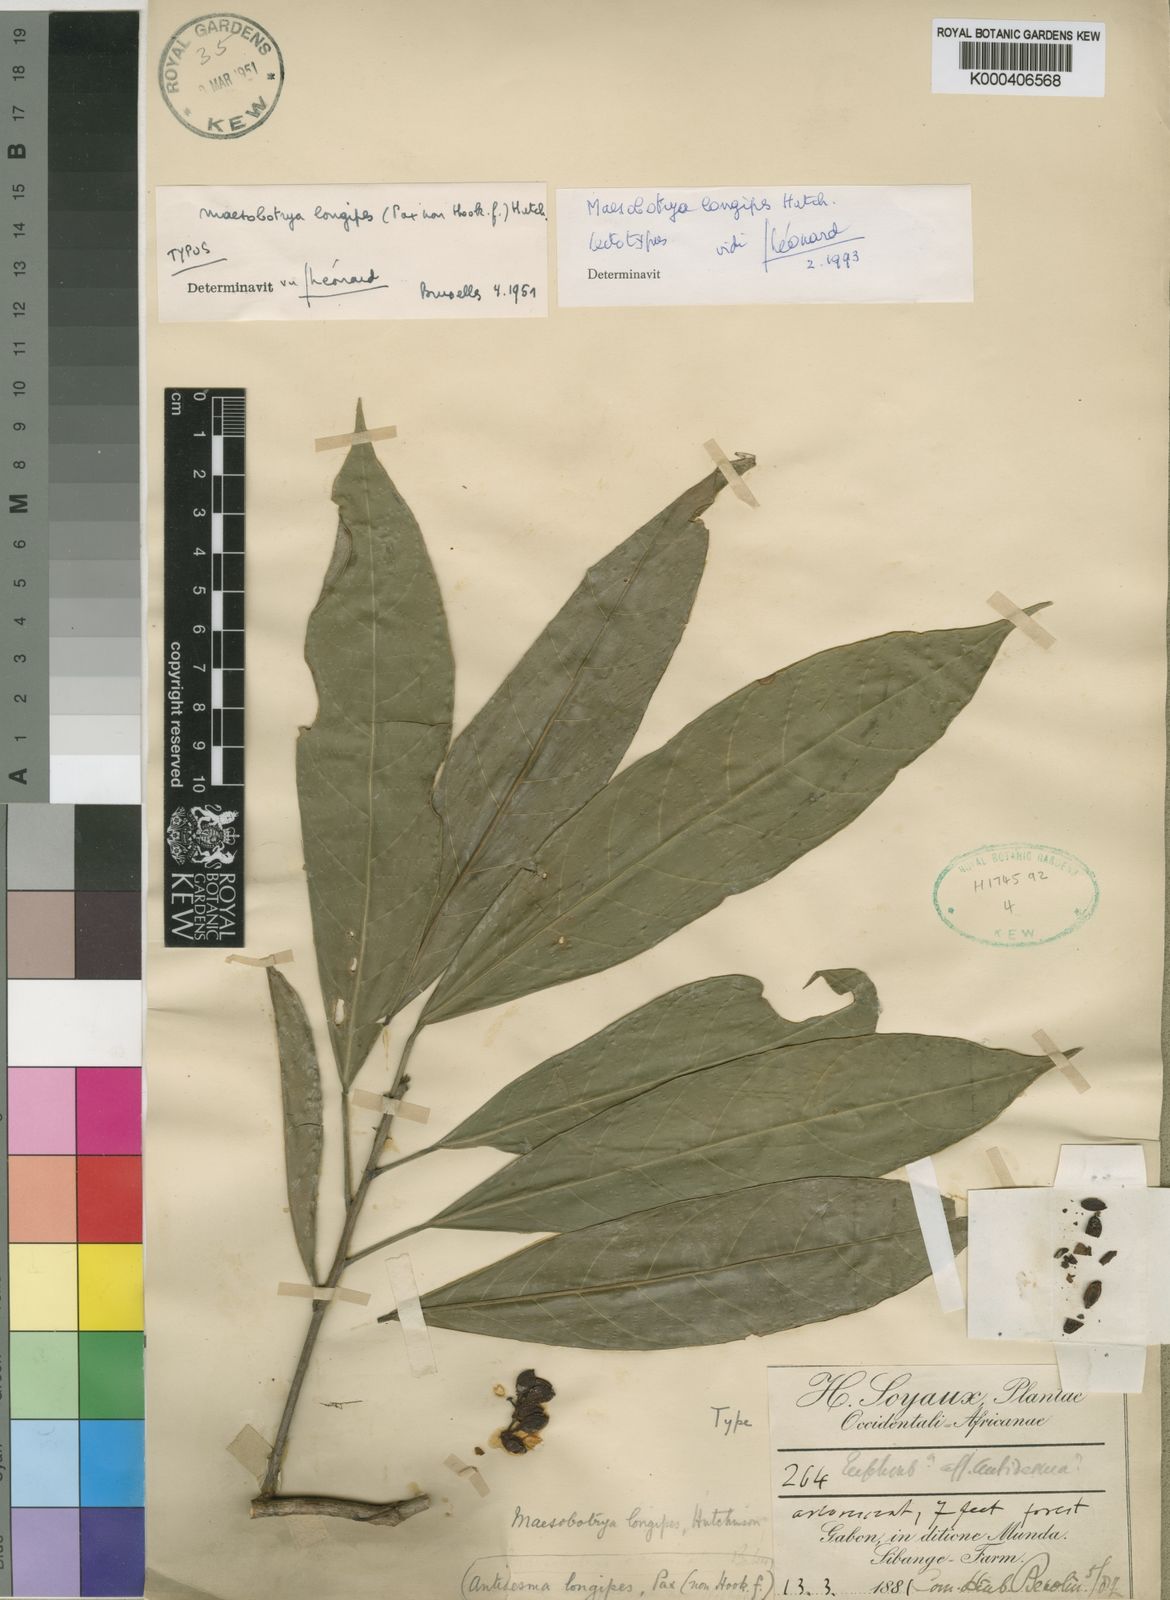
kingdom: Plantae
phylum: Tracheophyta
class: Magnoliopsida
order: Malpighiales
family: Phyllanthaceae
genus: Maesobotrya
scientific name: Maesobotrya longipes
